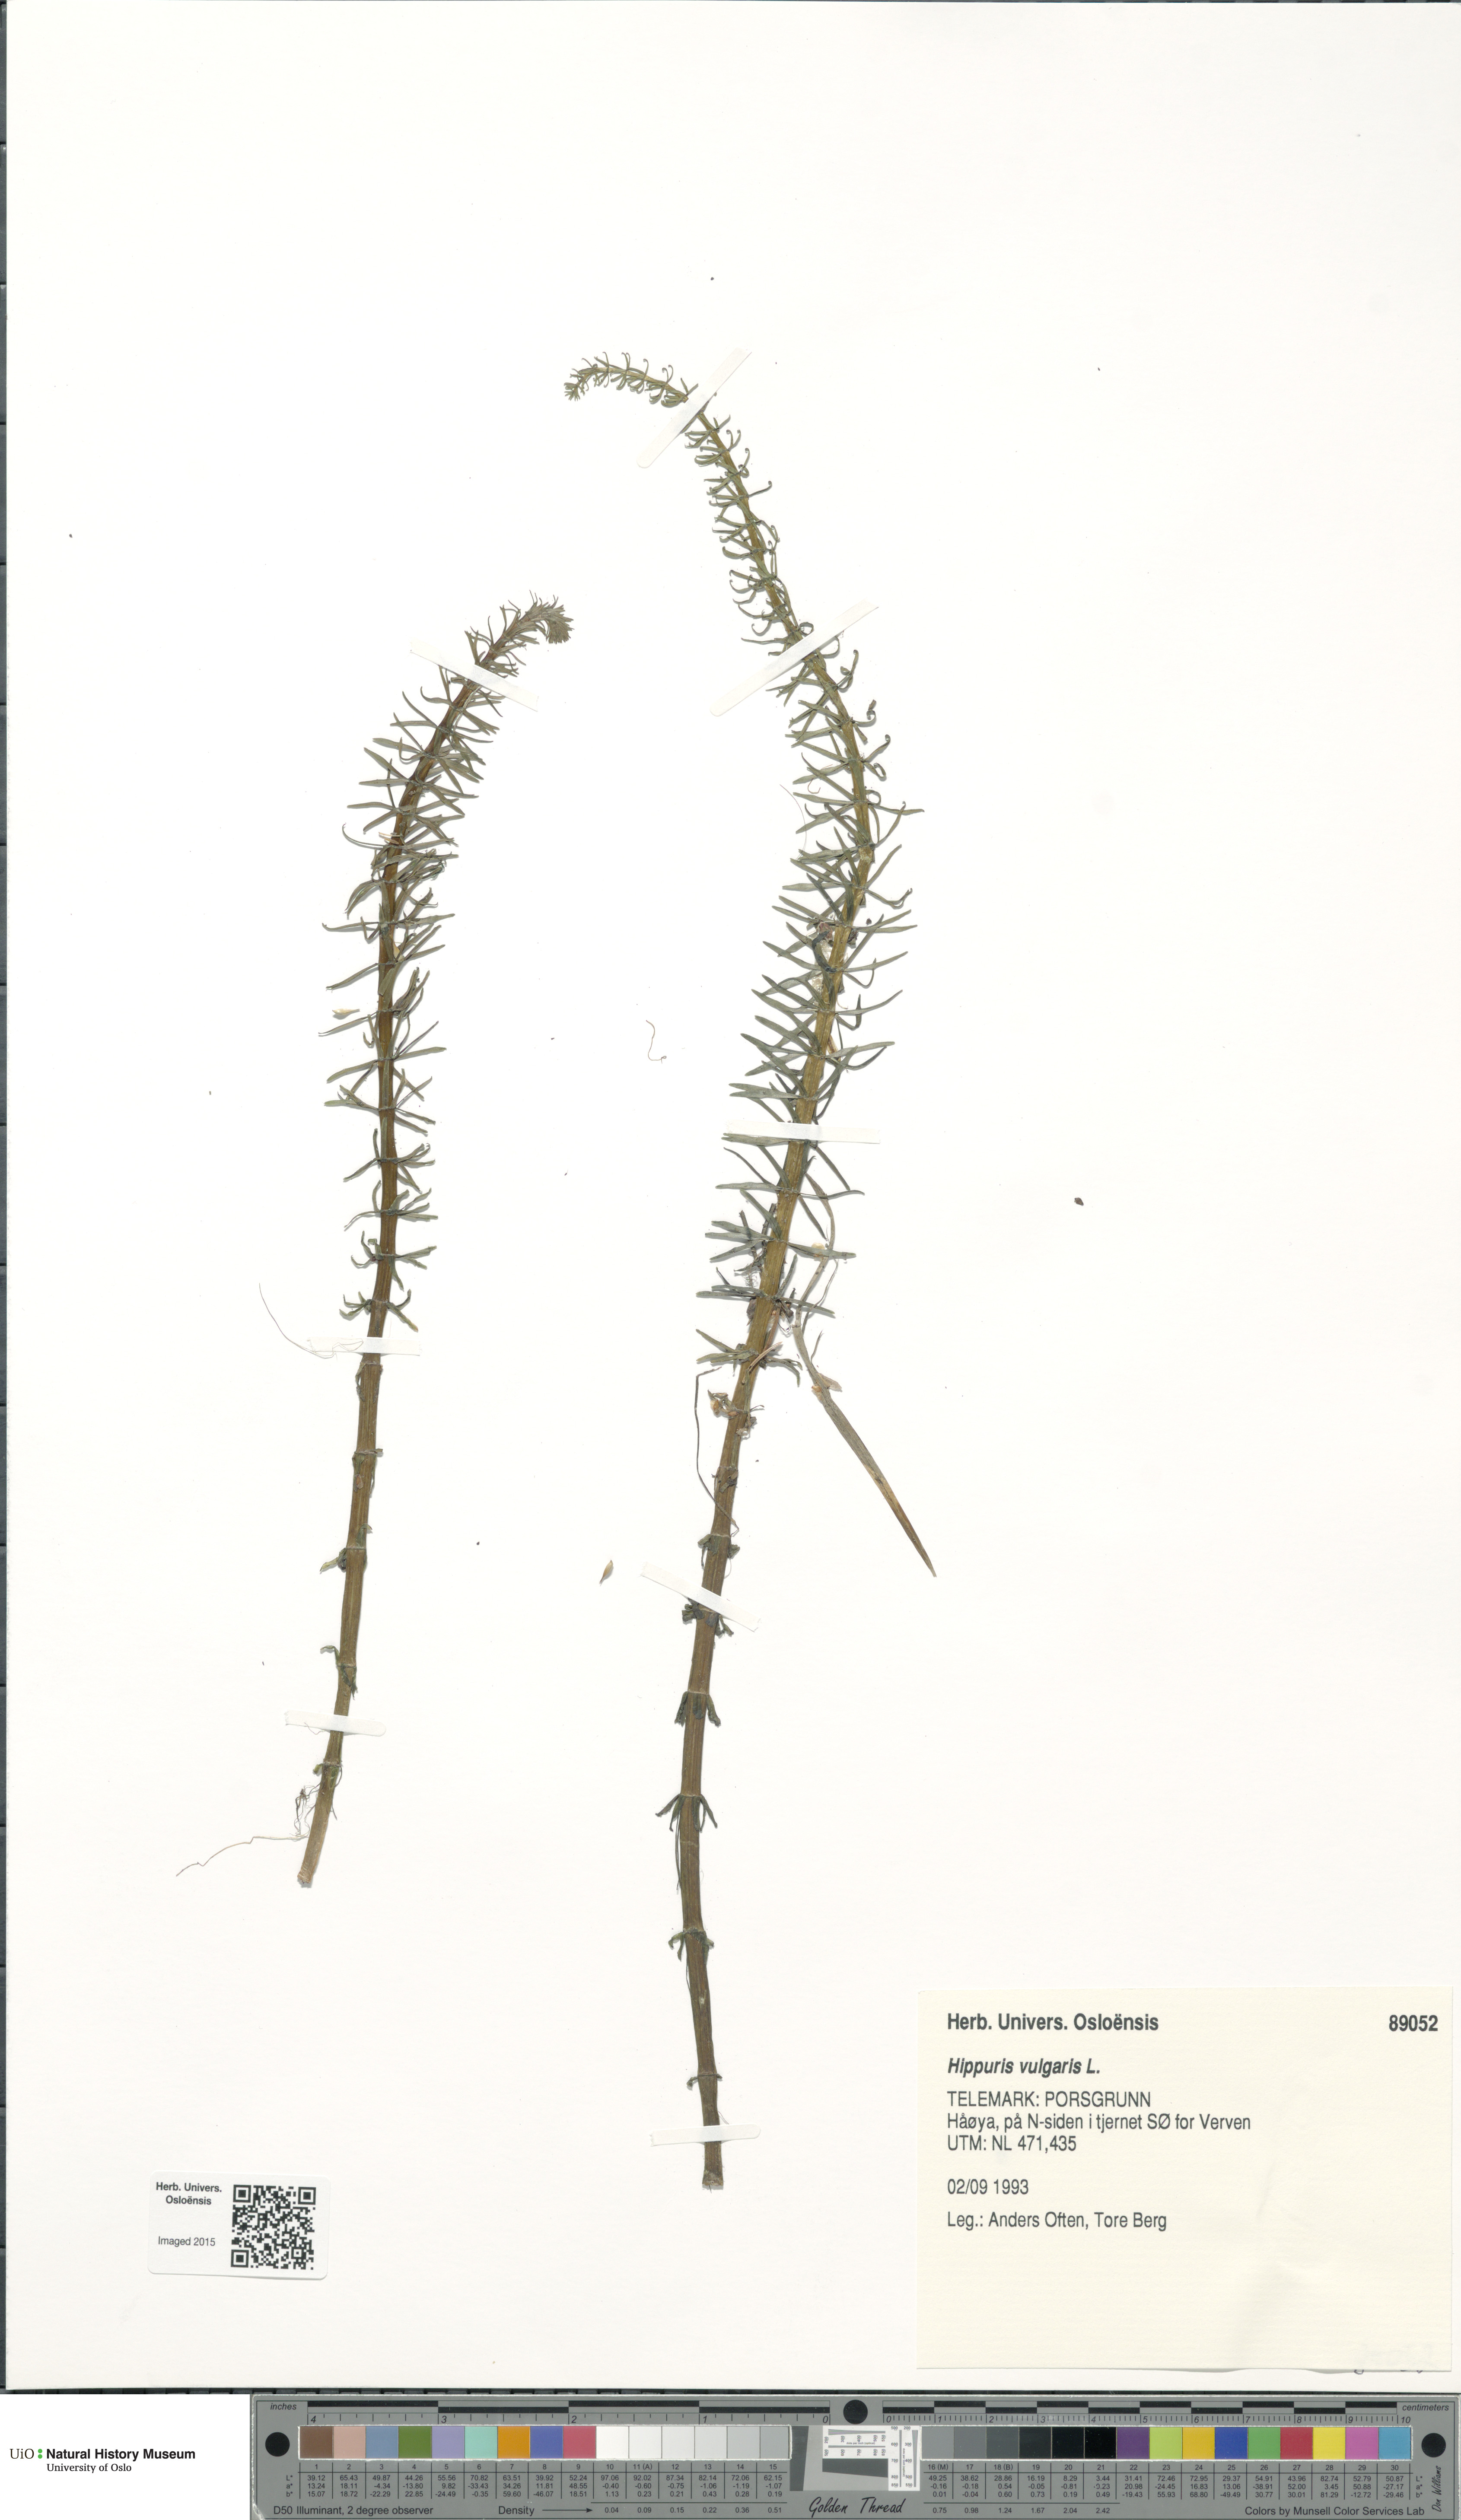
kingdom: Plantae
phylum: Tracheophyta
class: Magnoliopsida
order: Lamiales
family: Plantaginaceae
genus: Hippuris
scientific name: Hippuris vulgaris
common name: Mare's-tail
